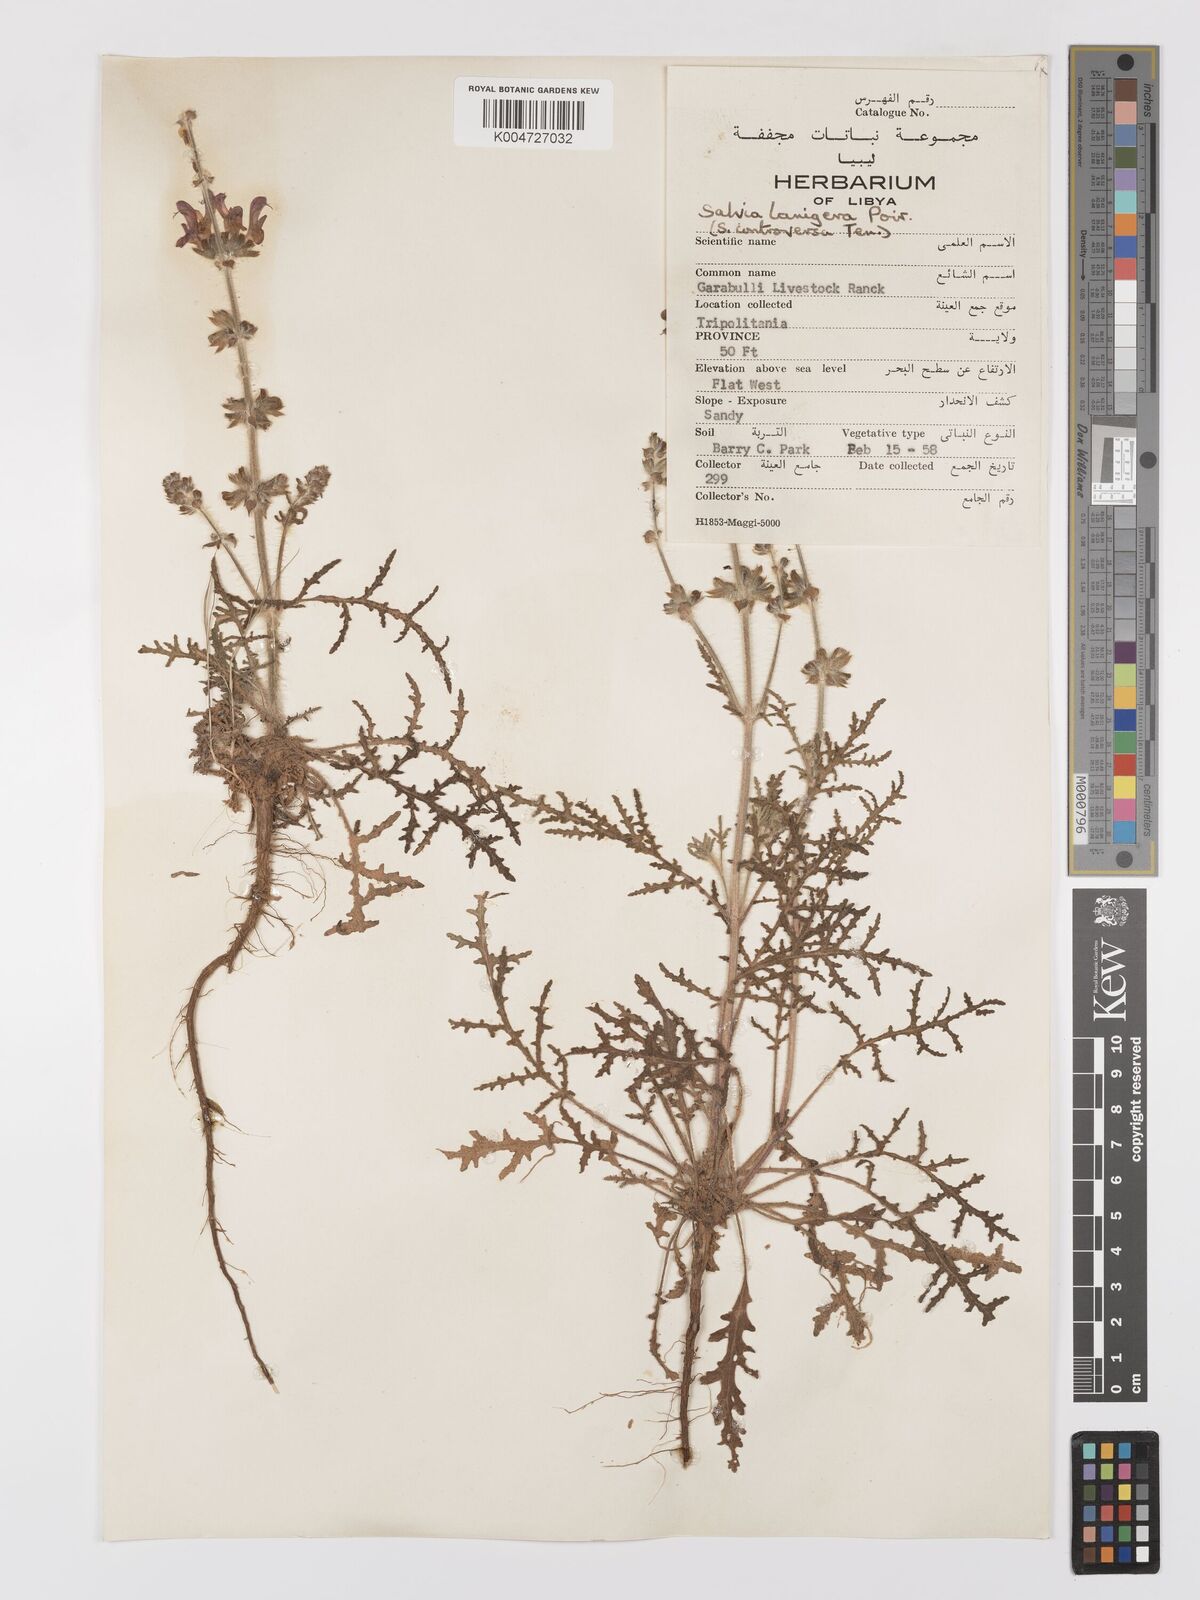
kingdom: Plantae
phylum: Tracheophyta
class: Magnoliopsida
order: Lamiales
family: Lamiaceae
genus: Salvia
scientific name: Salvia lanigera
